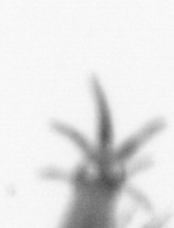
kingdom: Animalia
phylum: Annelida
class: Polychaeta
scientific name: Polychaeta
